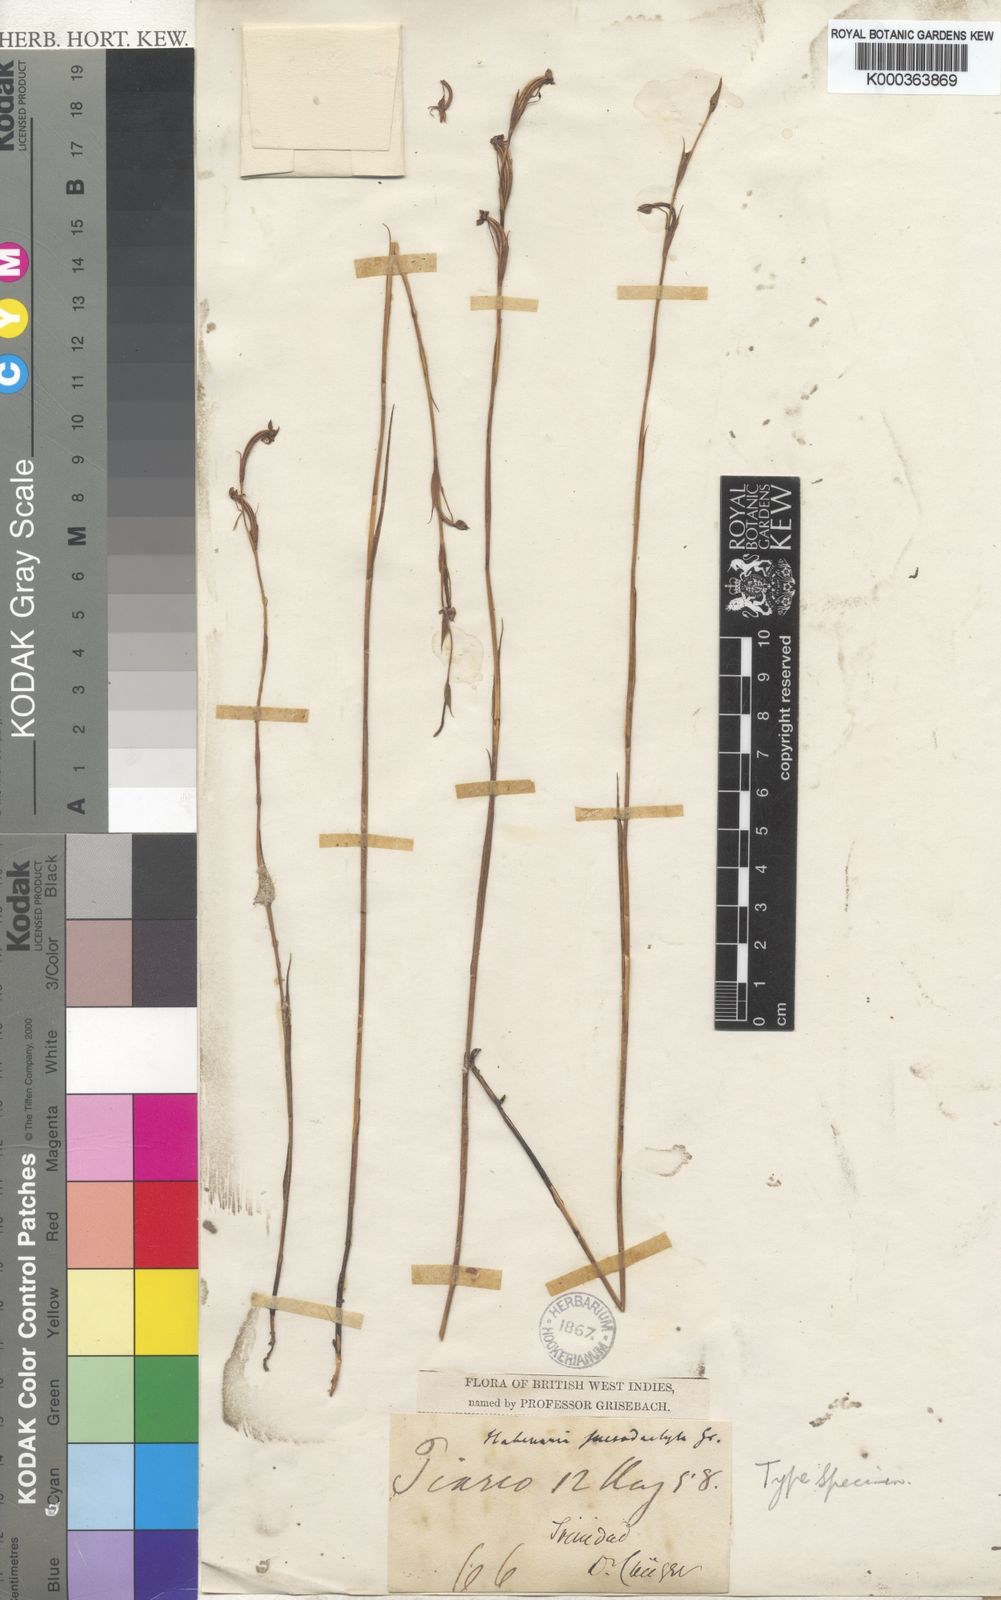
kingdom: Plantae
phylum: Tracheophyta
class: Liliopsida
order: Asparagales
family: Orchidaceae
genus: Habenaria
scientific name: Habenaria leprieurii
